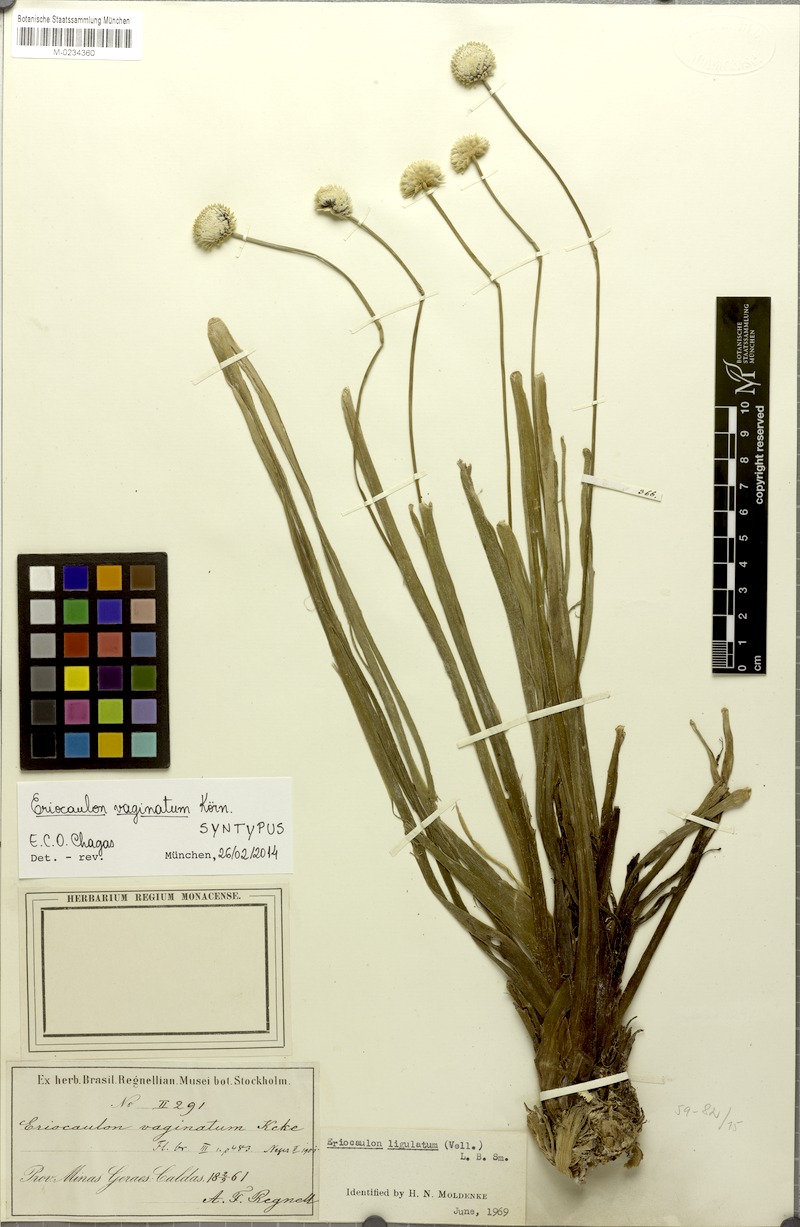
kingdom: Plantae
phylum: Tracheophyta
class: Liliopsida
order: Poales
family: Eriocaulaceae
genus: Eriocaulon
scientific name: Eriocaulon ligulatum
